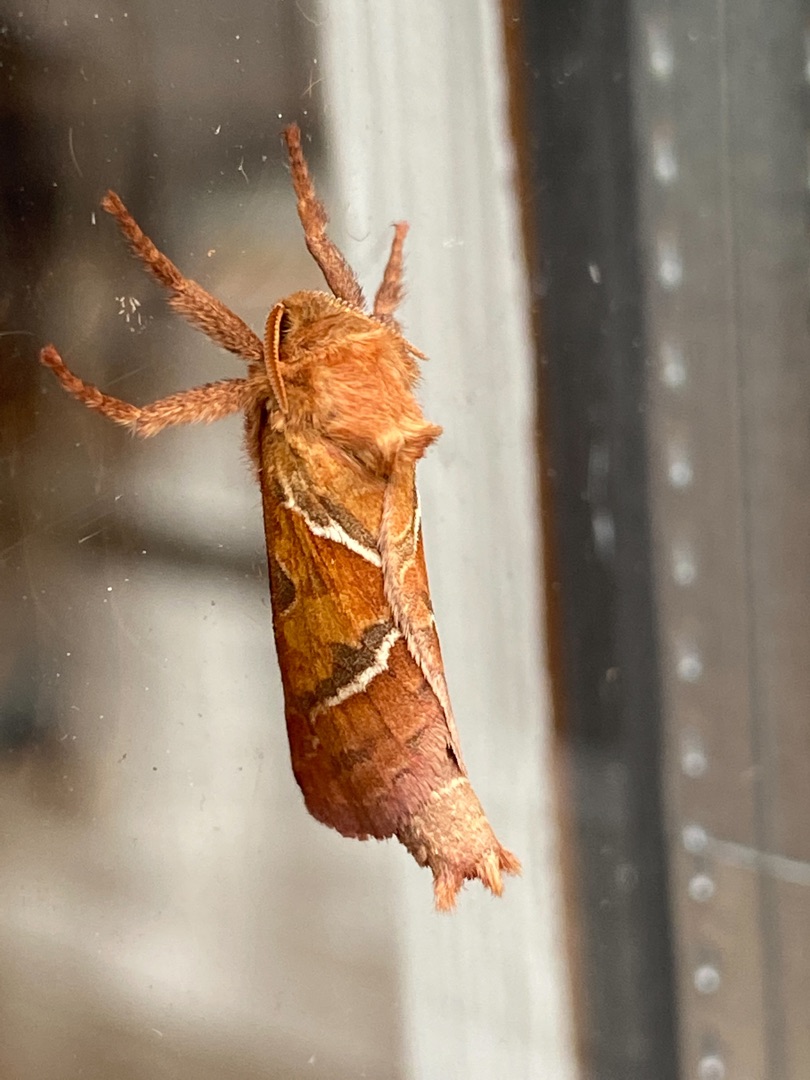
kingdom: Animalia
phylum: Arthropoda
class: Insecta
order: Lepidoptera
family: Hepialidae
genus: Triodia
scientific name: Triodia sylvina
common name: Skræpperodæder
